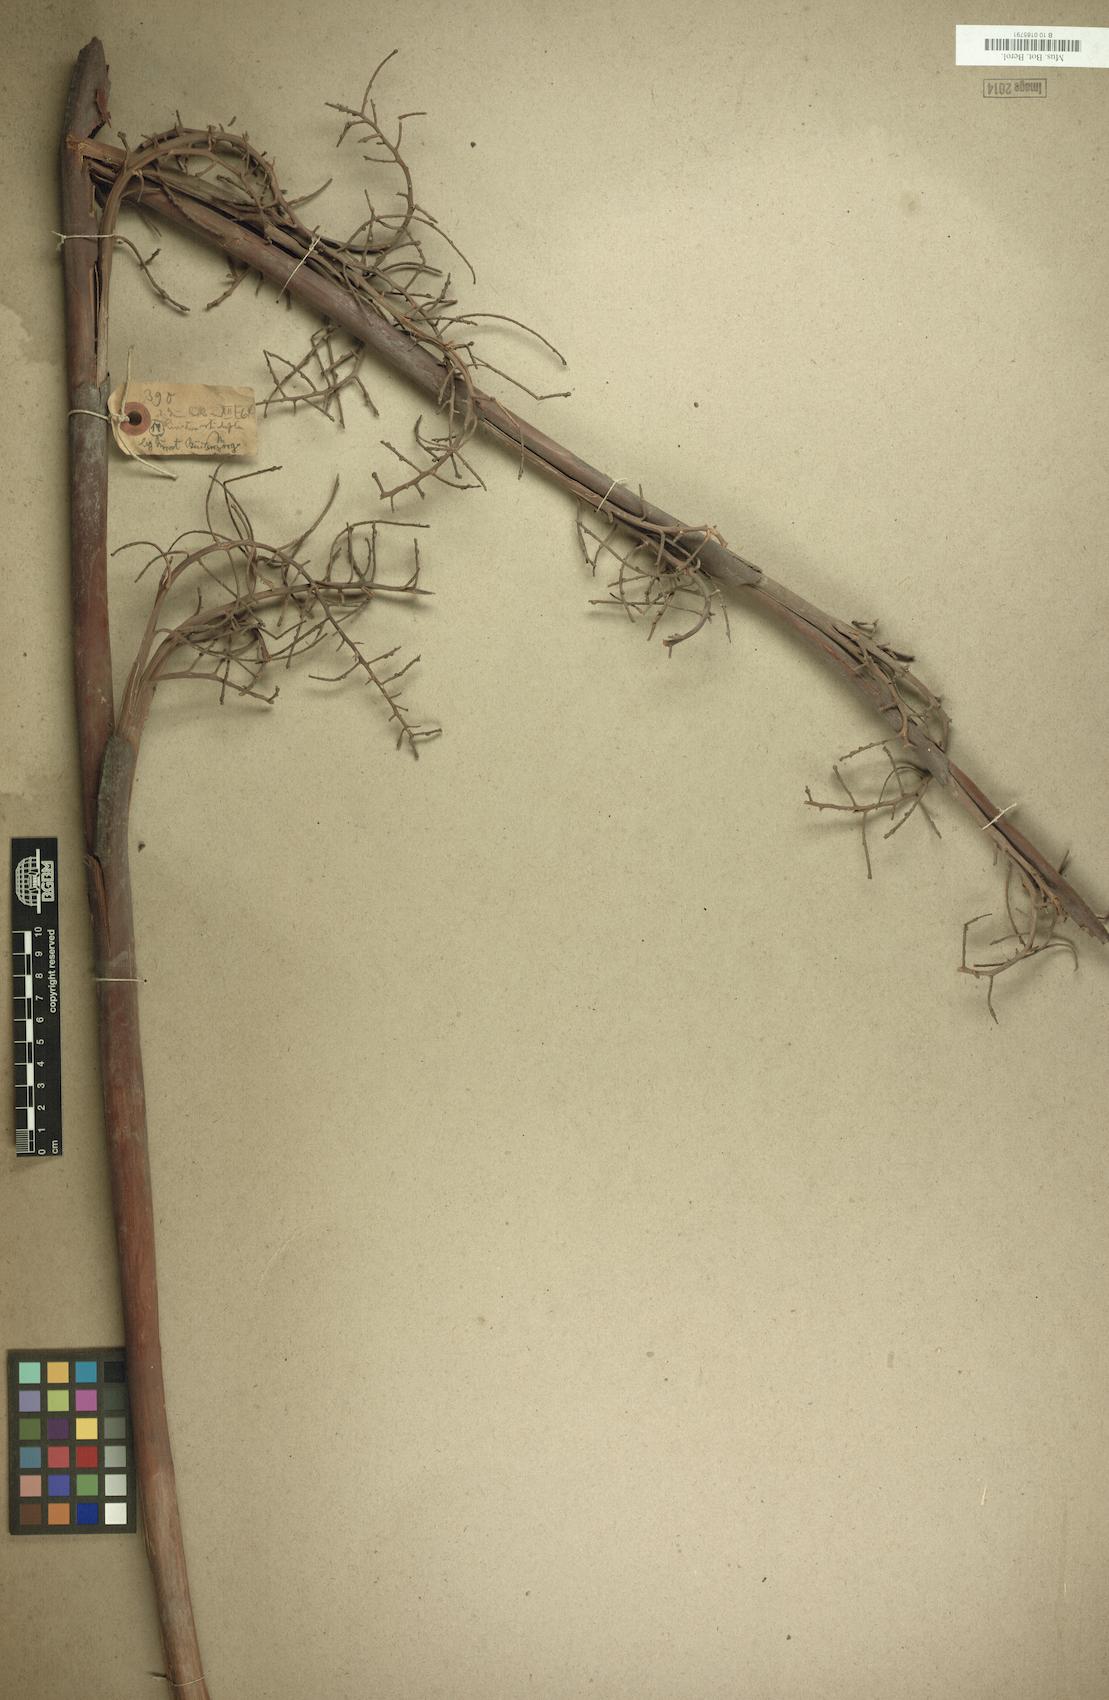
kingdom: Plantae
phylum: Tracheophyta
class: Liliopsida
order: Arecales
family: Arecaceae
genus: Saribus
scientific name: Saribus rotundifolius
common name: Palm
